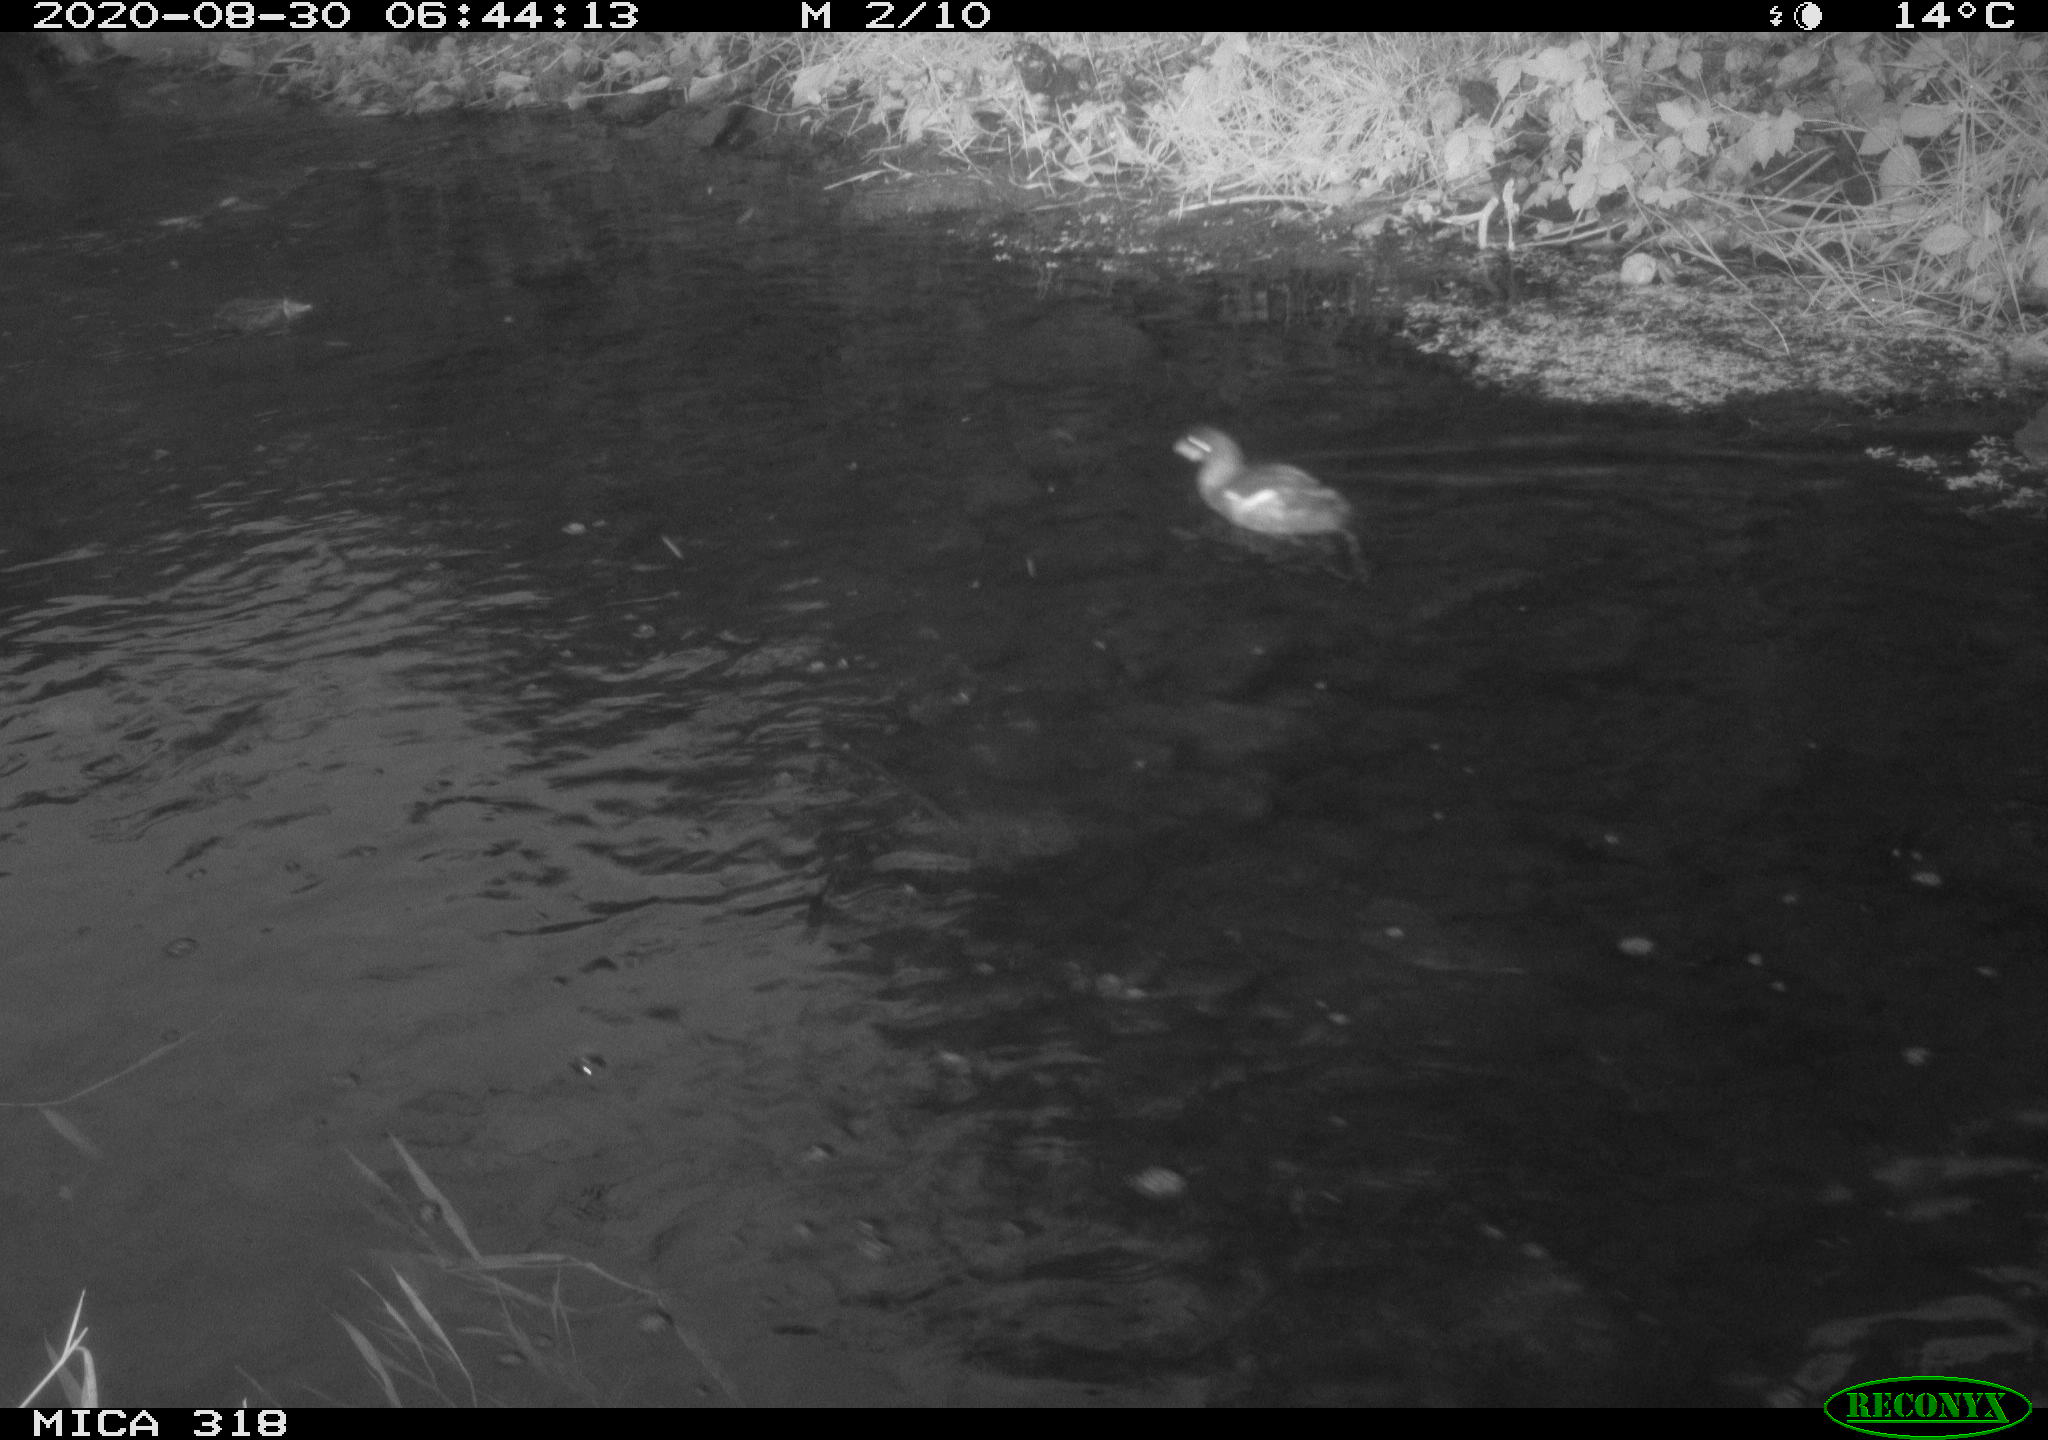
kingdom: Animalia
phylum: Chordata
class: Aves
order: Gruiformes
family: Rallidae
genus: Gallinula
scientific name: Gallinula chloropus
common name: Common moorhen
